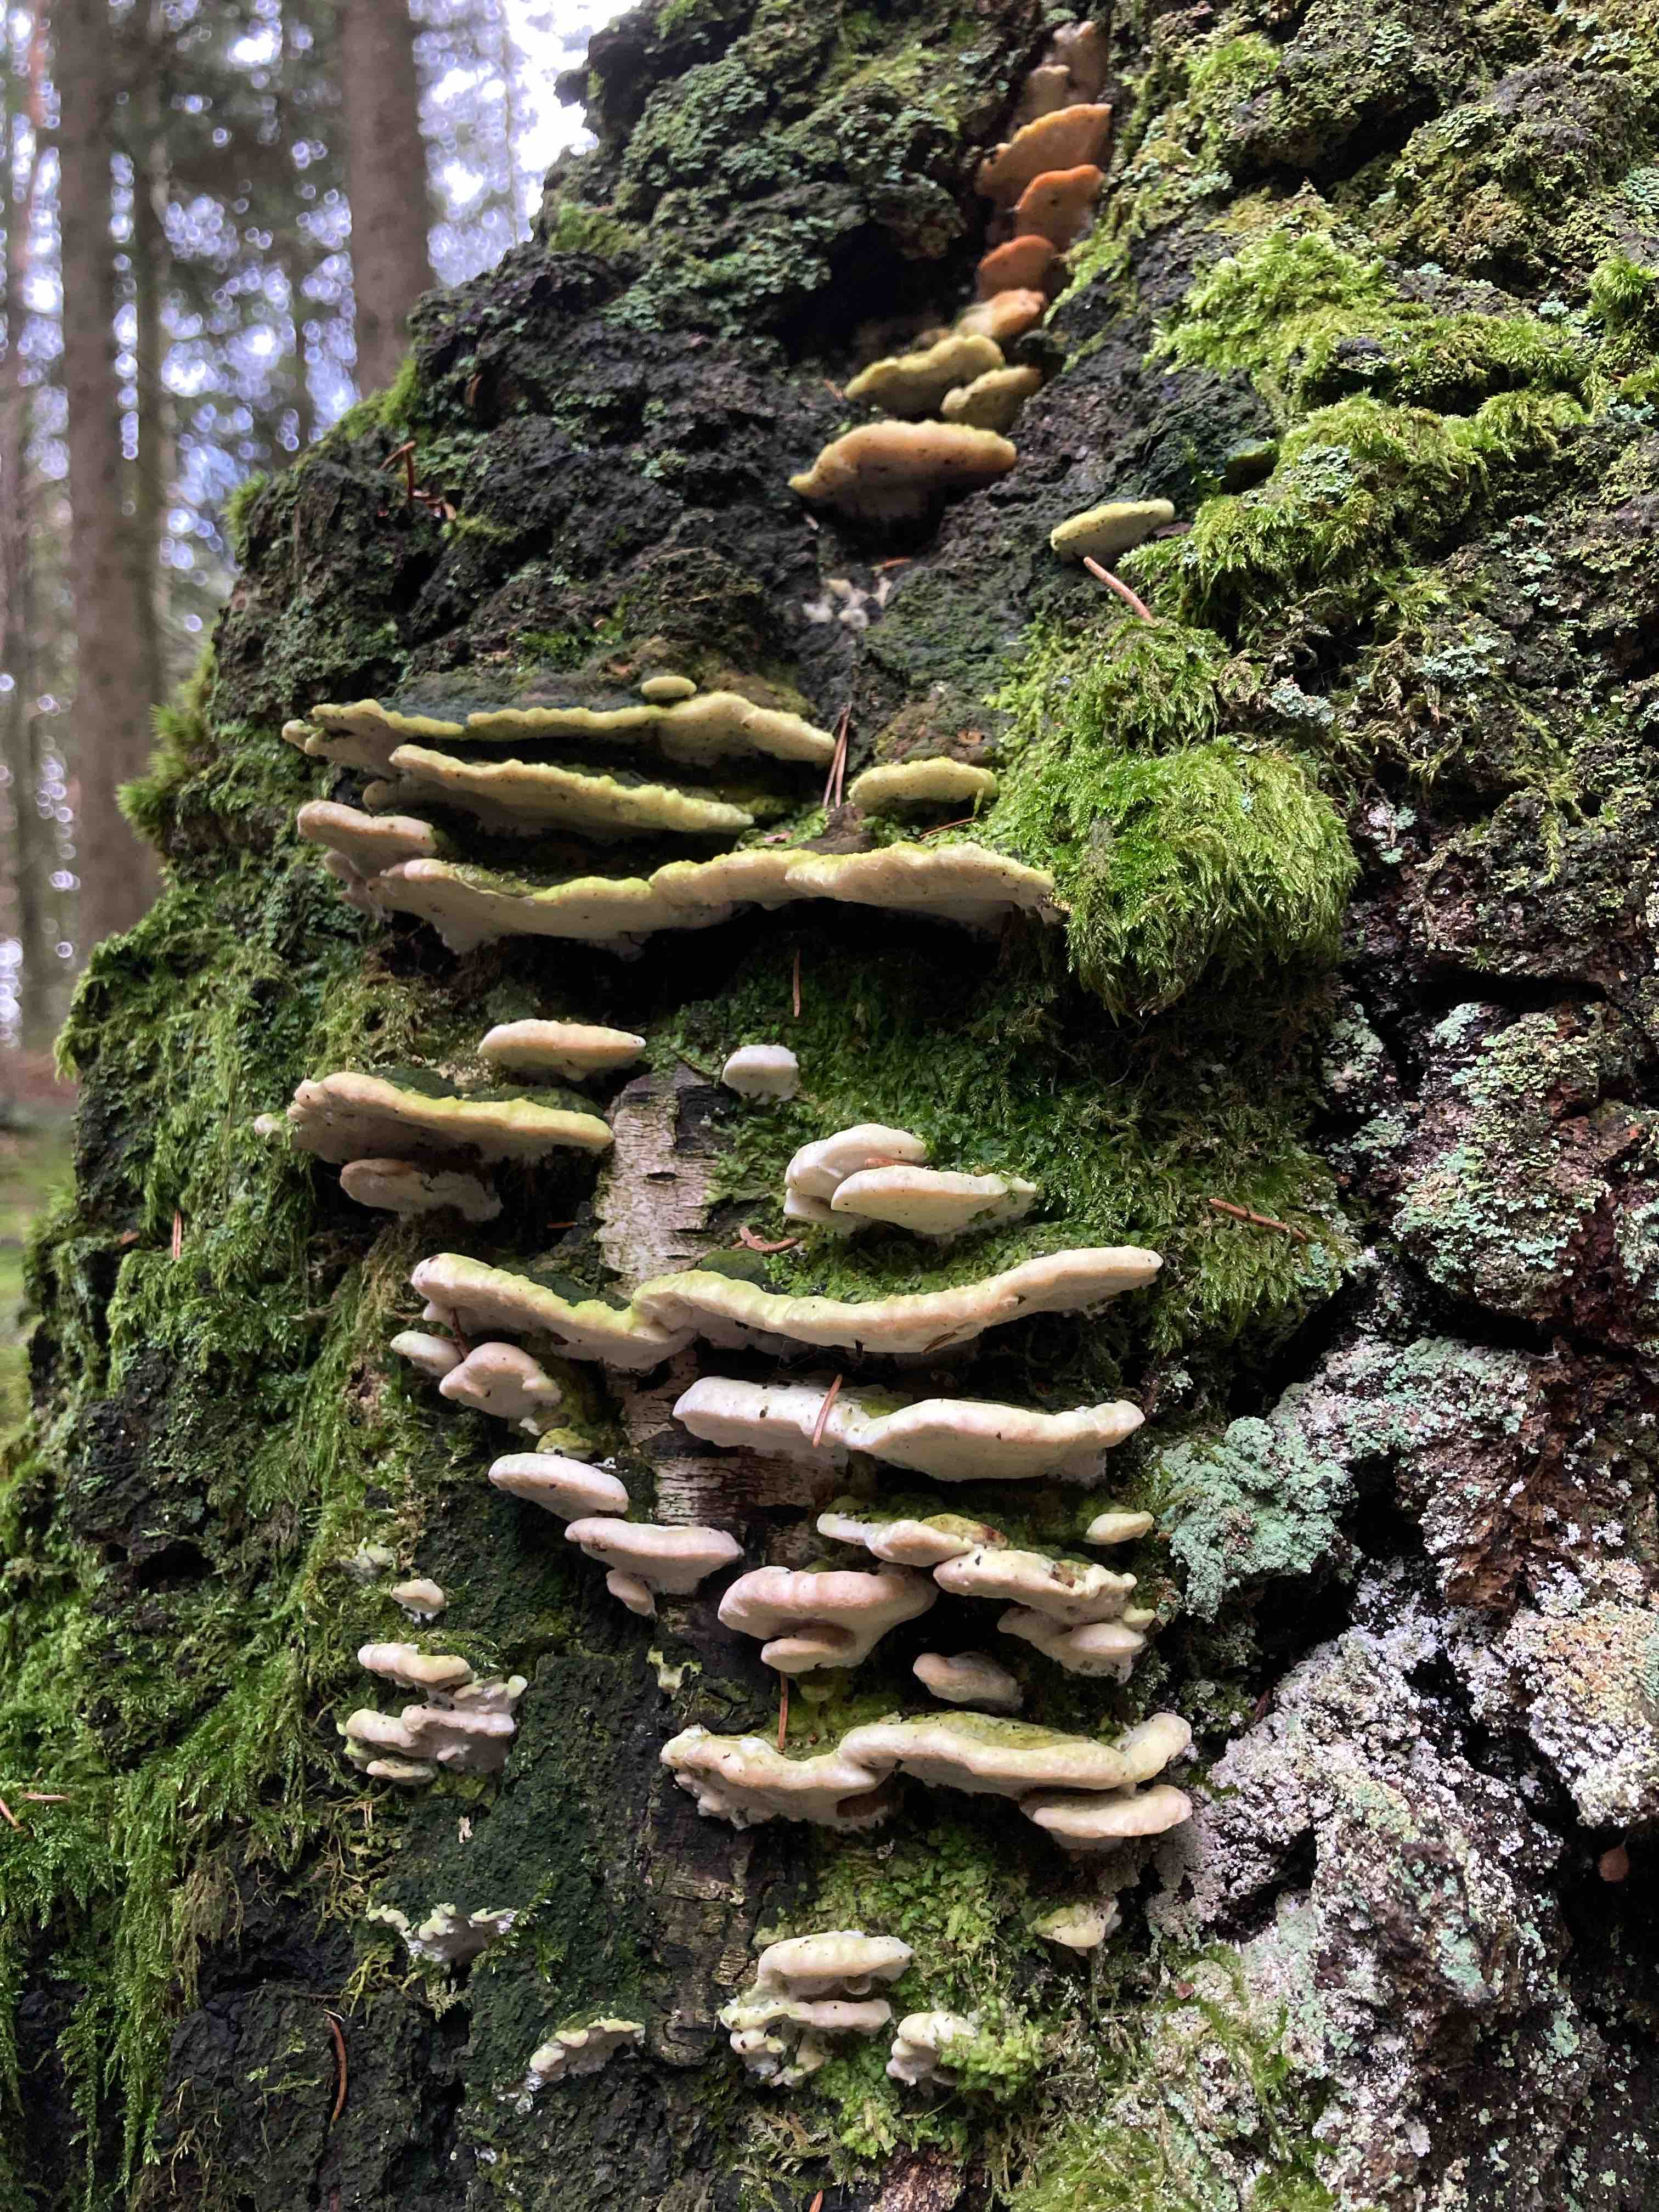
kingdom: Fungi
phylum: Basidiomycota
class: Agaricomycetes
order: Hymenochaetales
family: Oxyporaceae
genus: Oxyporus
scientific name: Oxyporus populinus
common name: sammenvokset trylleporesvamp
